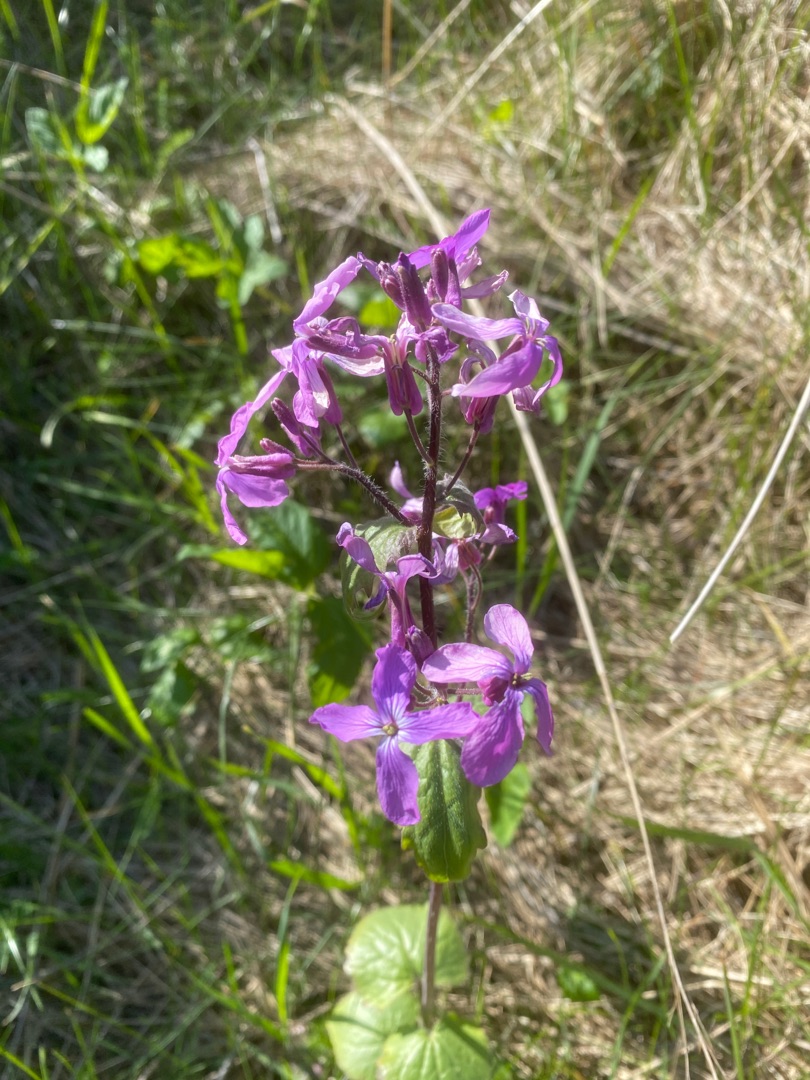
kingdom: Plantae
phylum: Tracheophyta
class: Magnoliopsida
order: Brassicales
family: Brassicaceae
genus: Lunaria
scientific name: Lunaria annua
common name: Judaspenge
